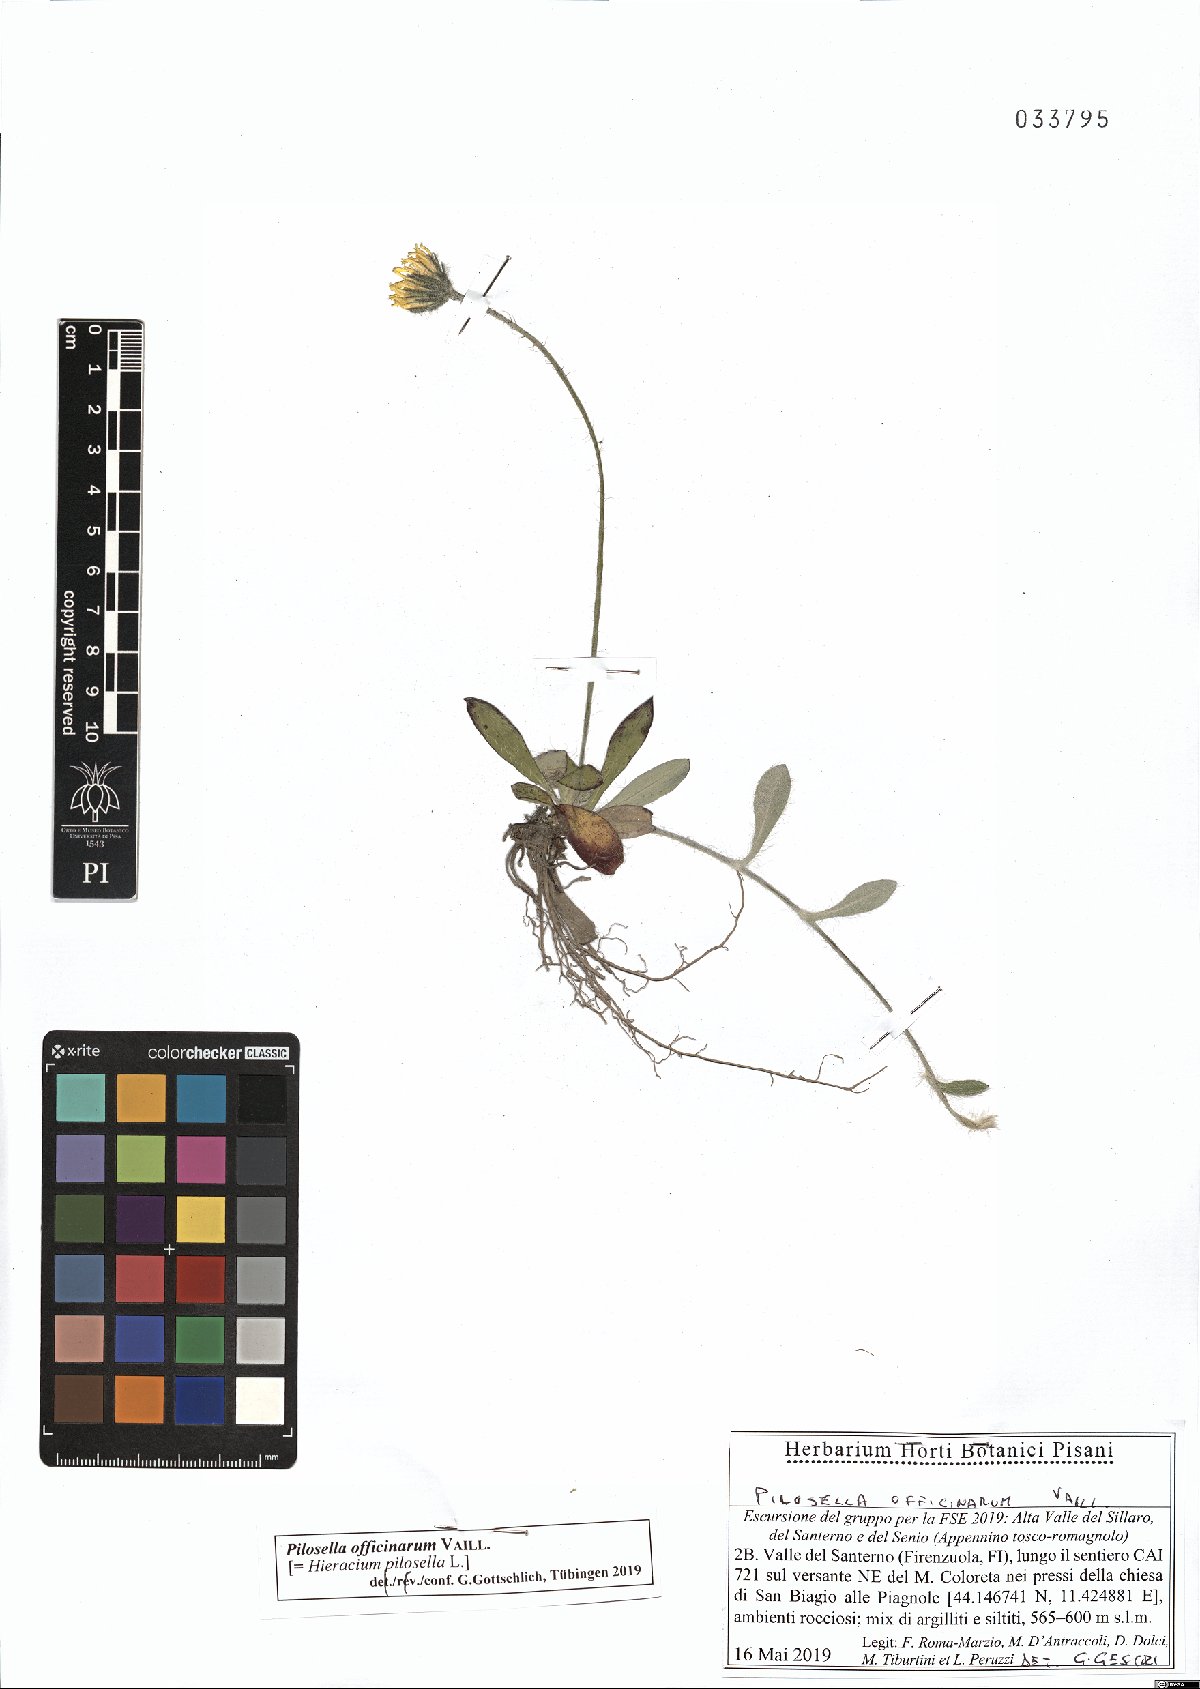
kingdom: Plantae
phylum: Tracheophyta
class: Magnoliopsida
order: Asterales
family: Asteraceae
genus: Pilosella
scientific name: Pilosella officinarum
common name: Mouse-ear hawkweed
